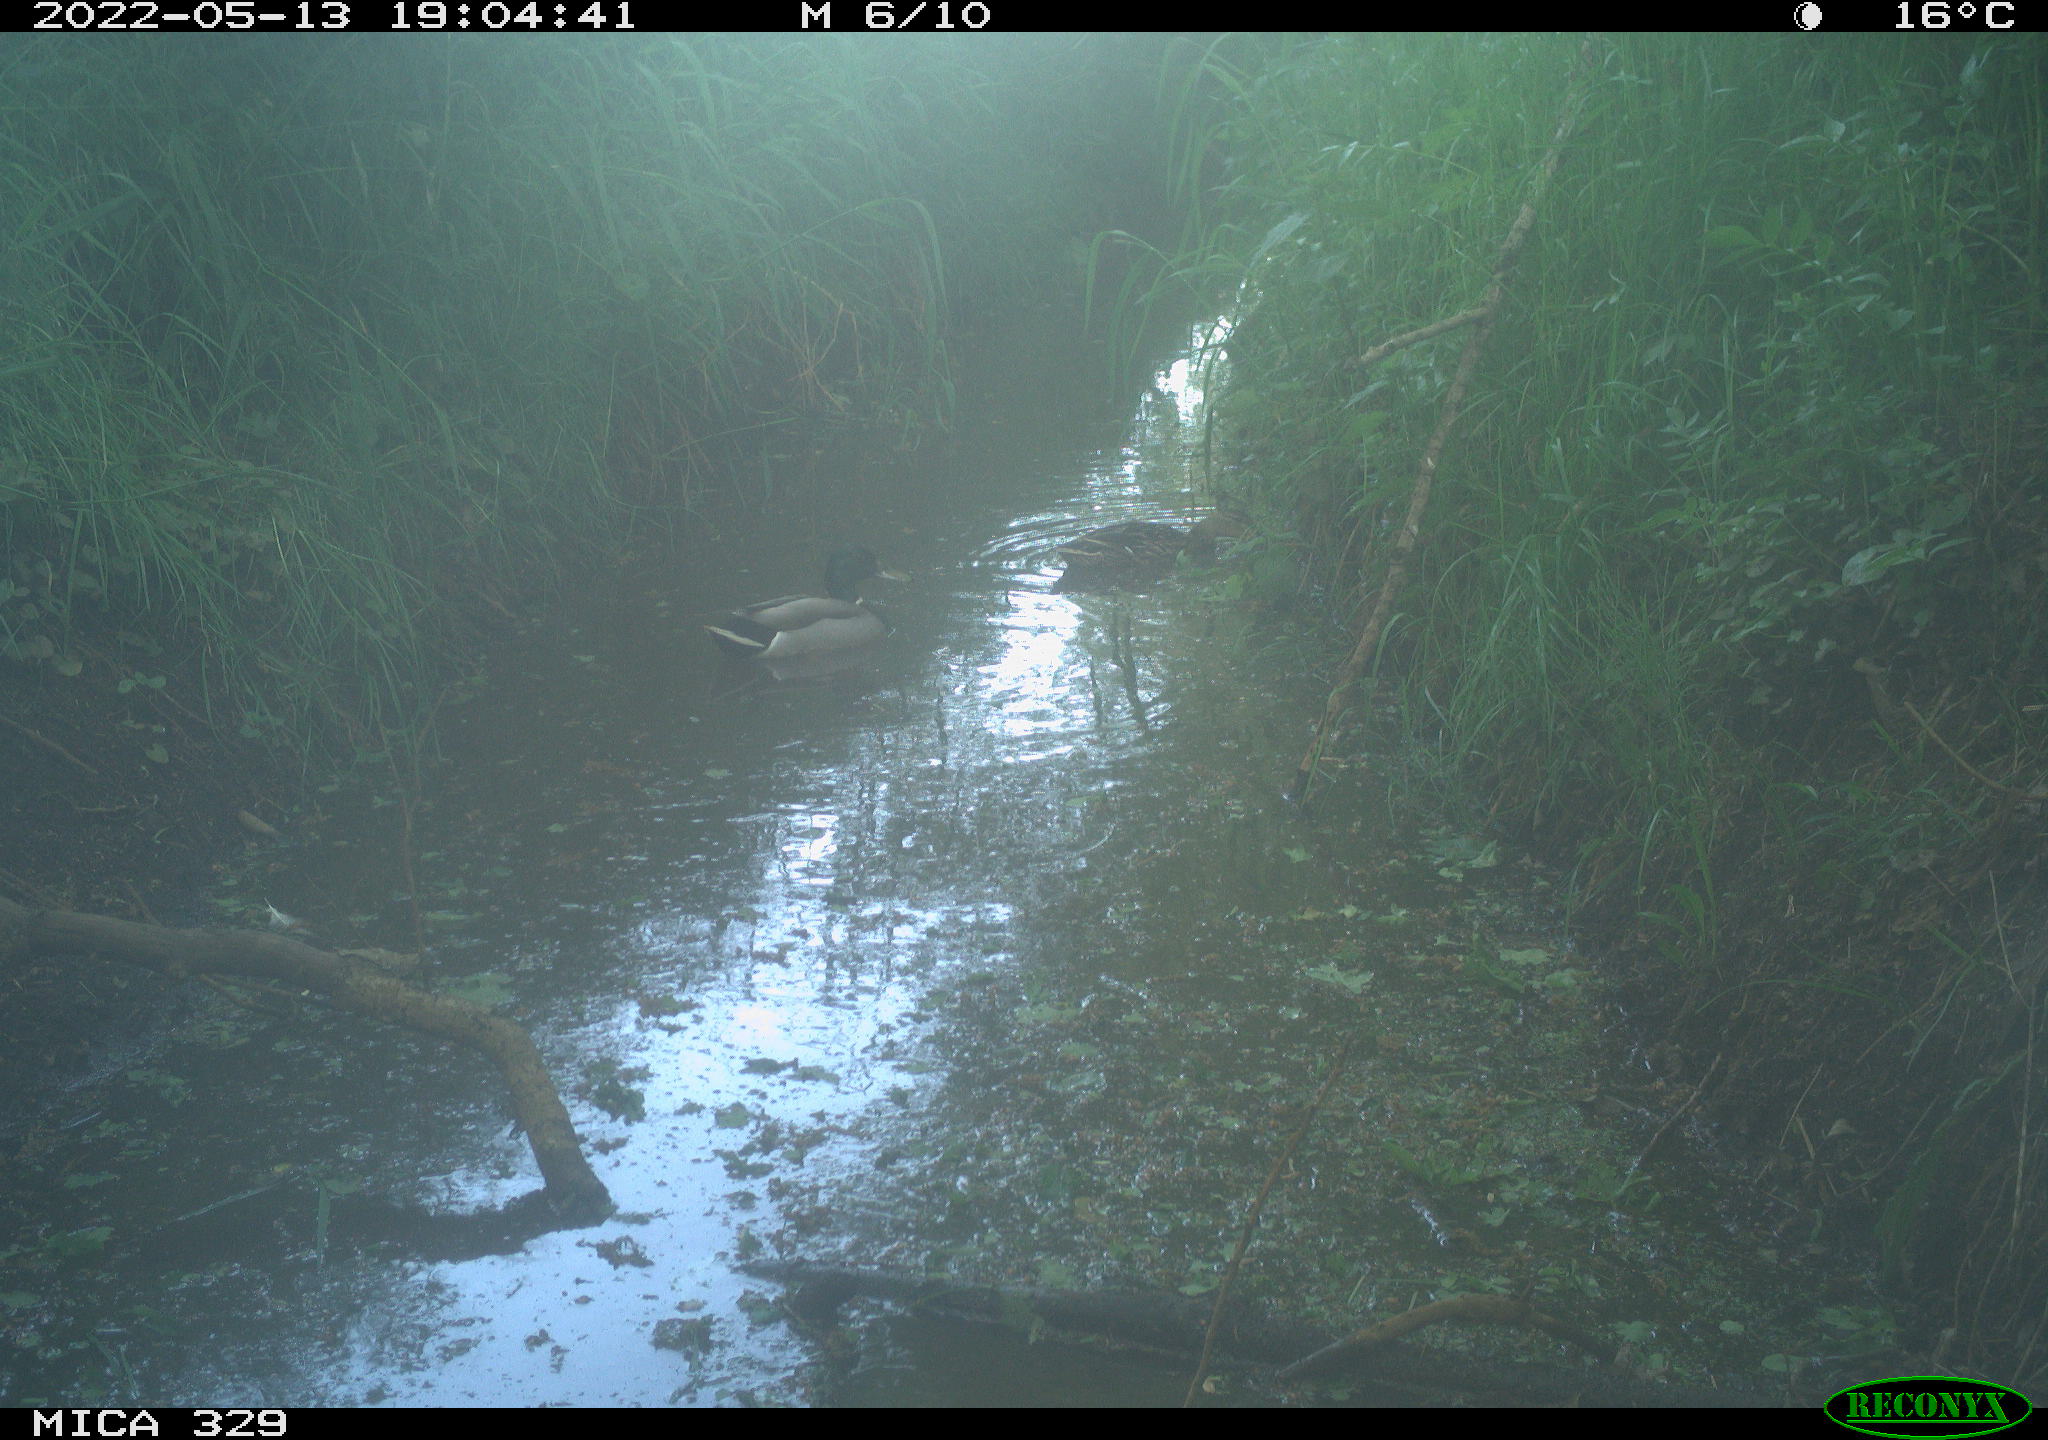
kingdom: Animalia
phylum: Chordata
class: Aves
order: Anseriformes
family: Anatidae
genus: Anas
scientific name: Anas platyrhynchos
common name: Mallard
